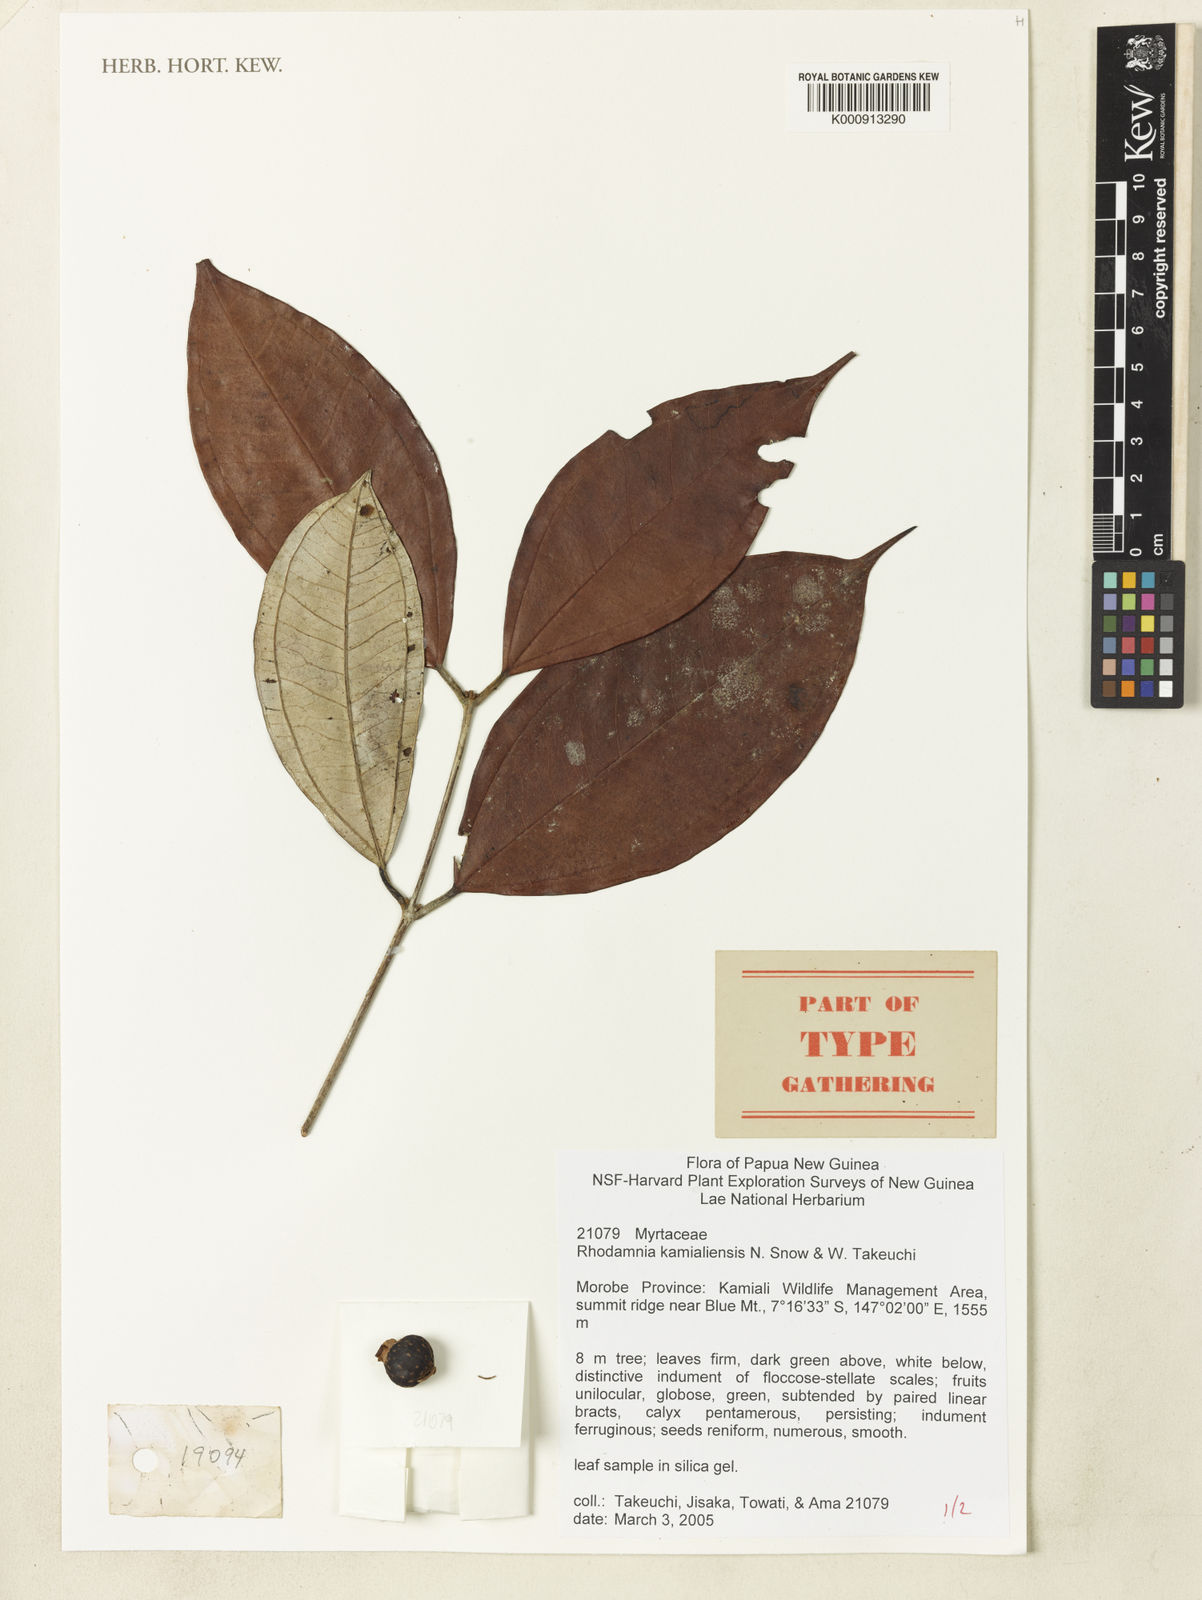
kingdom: Plantae
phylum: Tracheophyta
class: Magnoliopsida
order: Myrtales
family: Myrtaceae
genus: Rhodamnia
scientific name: Rhodamnia kamialiensis
